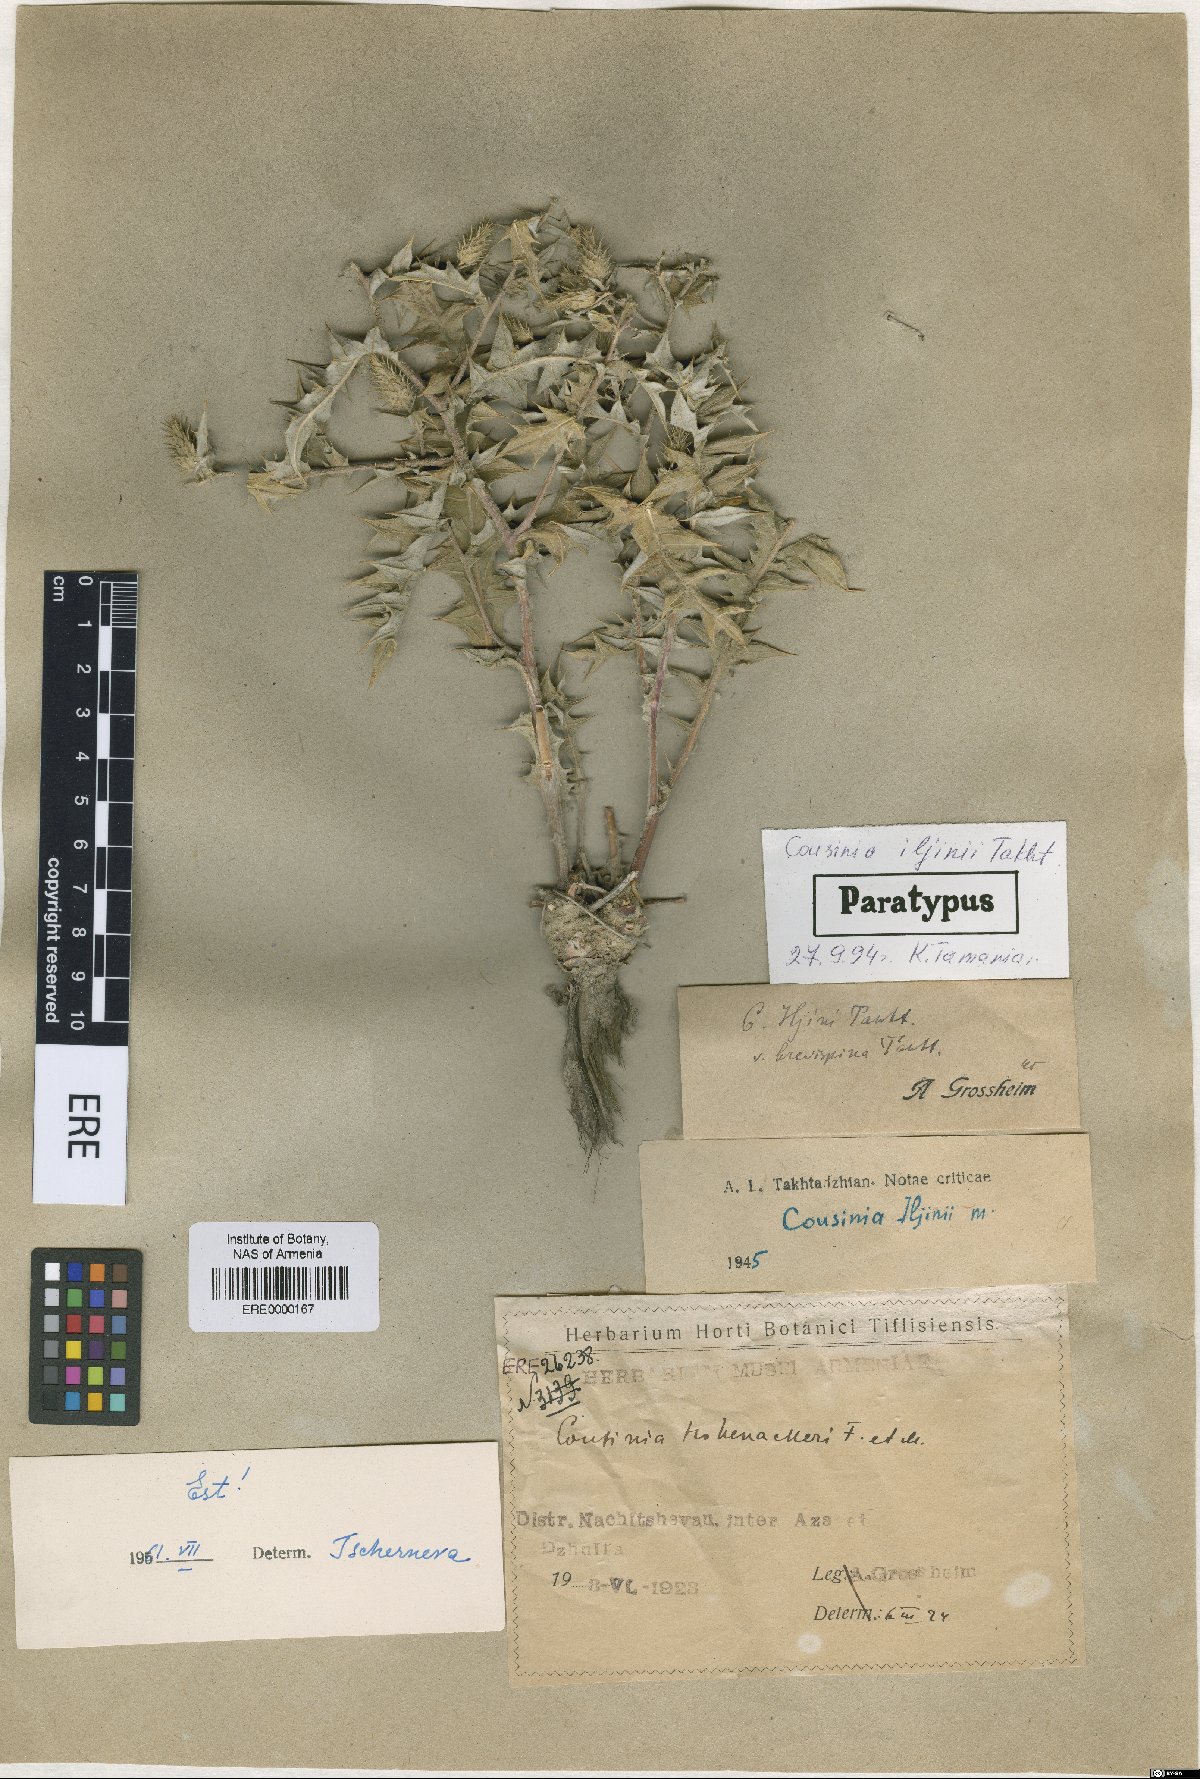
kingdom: Plantae
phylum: Tracheophyta
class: Magnoliopsida
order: Asterales
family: Asteraceae
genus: Cousinia
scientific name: Cousinia iljinii
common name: Ilyin's cousinia
